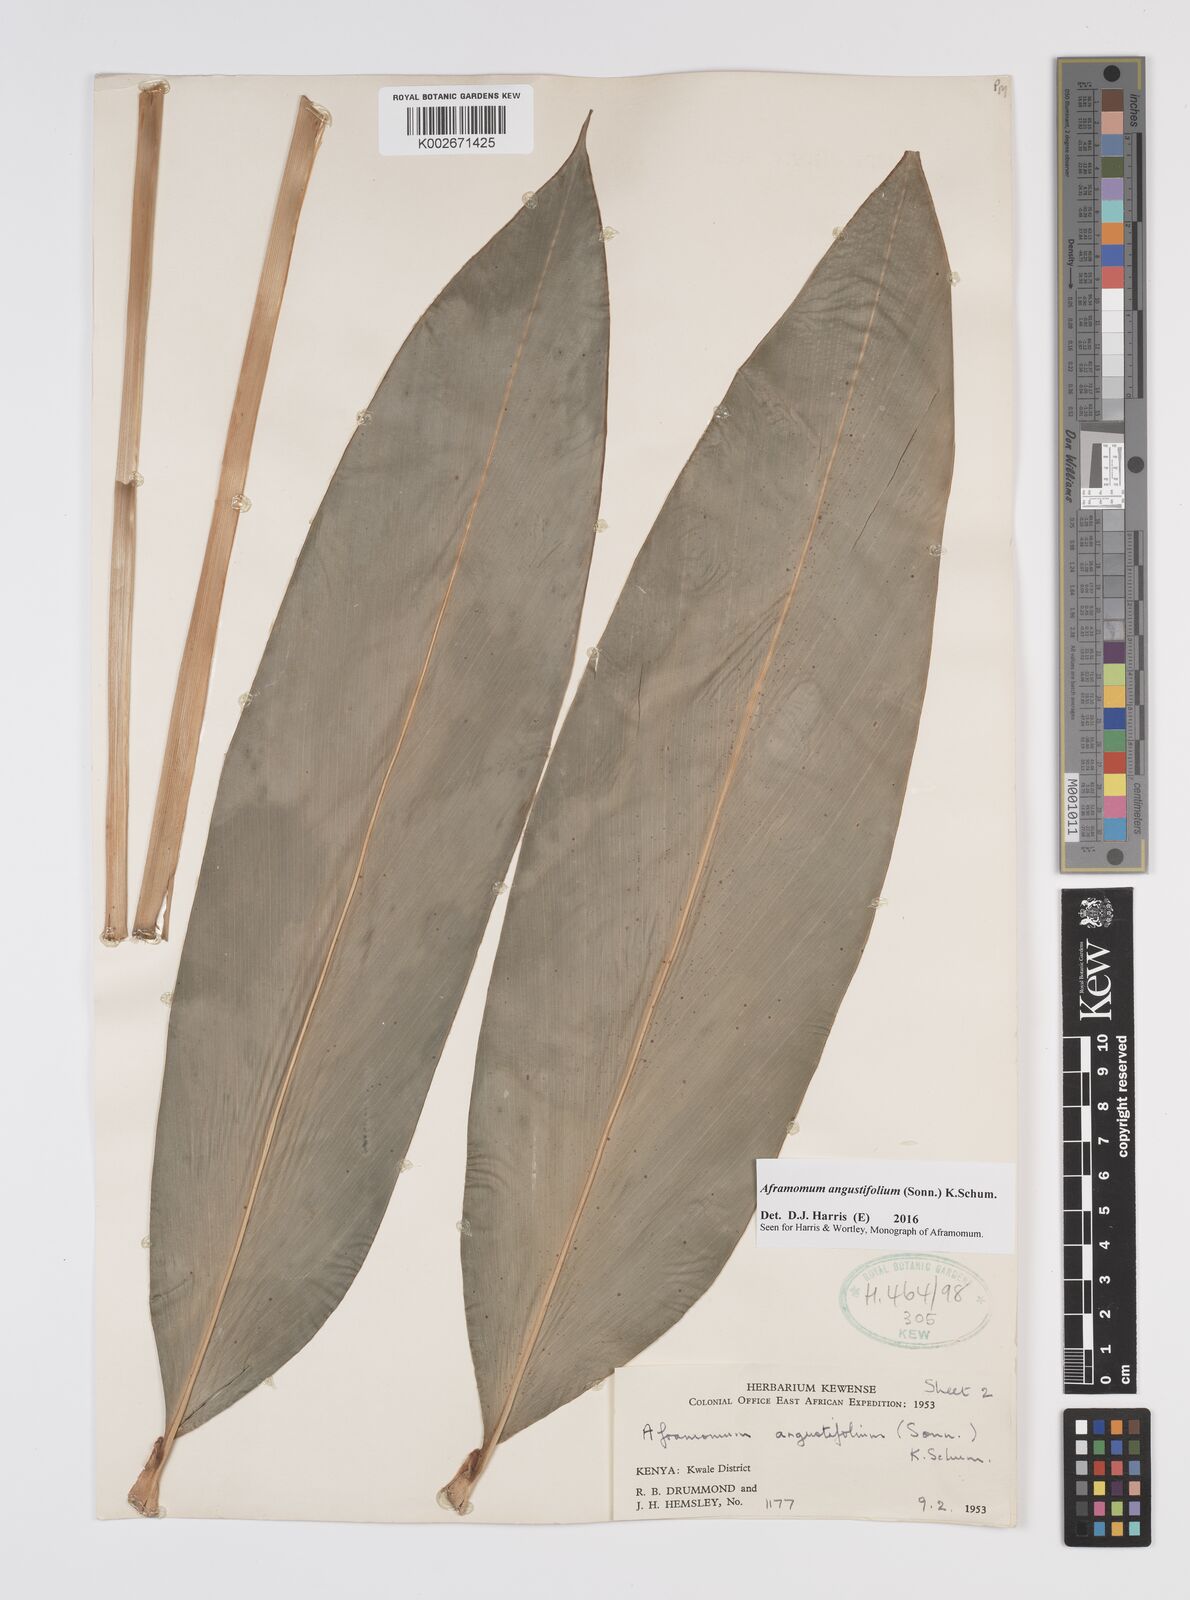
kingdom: Plantae
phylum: Tracheophyta
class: Liliopsida
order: Zingiberales
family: Zingiberaceae
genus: Aframomum
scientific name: Aframomum angustifolium
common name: Guinea grains
